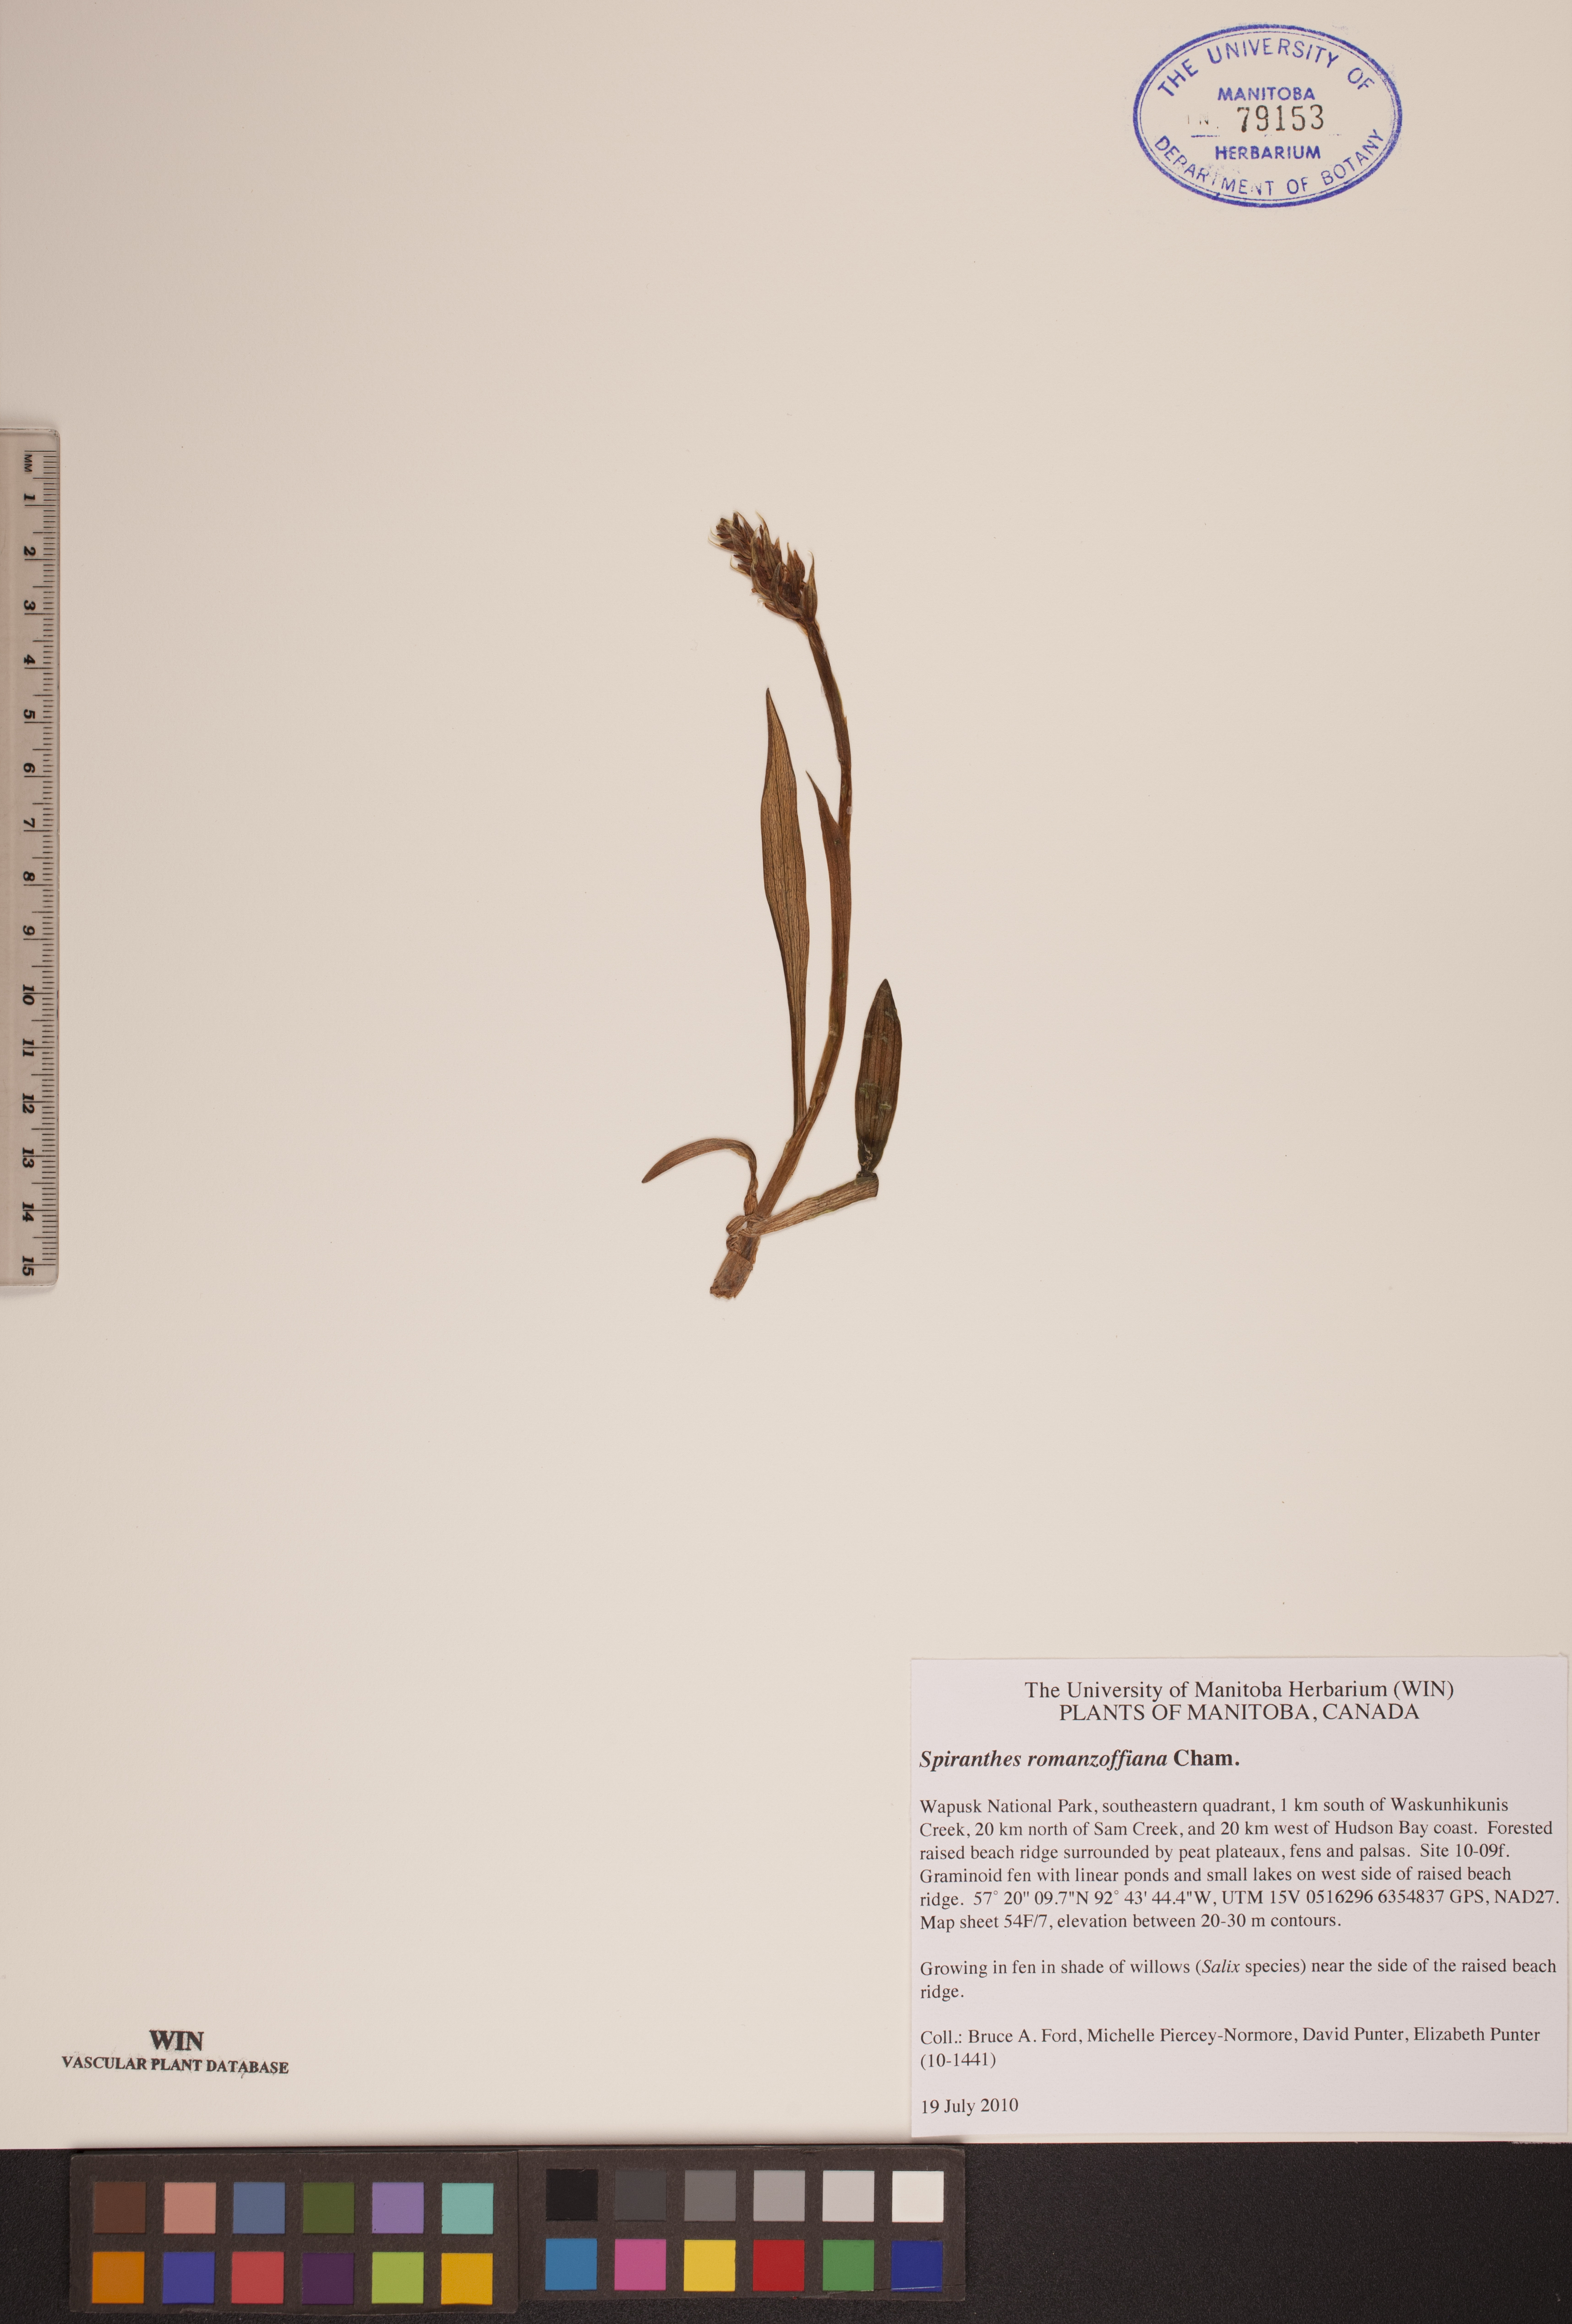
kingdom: Plantae
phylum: Tracheophyta
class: Liliopsida
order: Asparagales
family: Orchidaceae
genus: Spiranthes
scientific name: Spiranthes romanzoffiana
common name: Irish lady's-tresses
